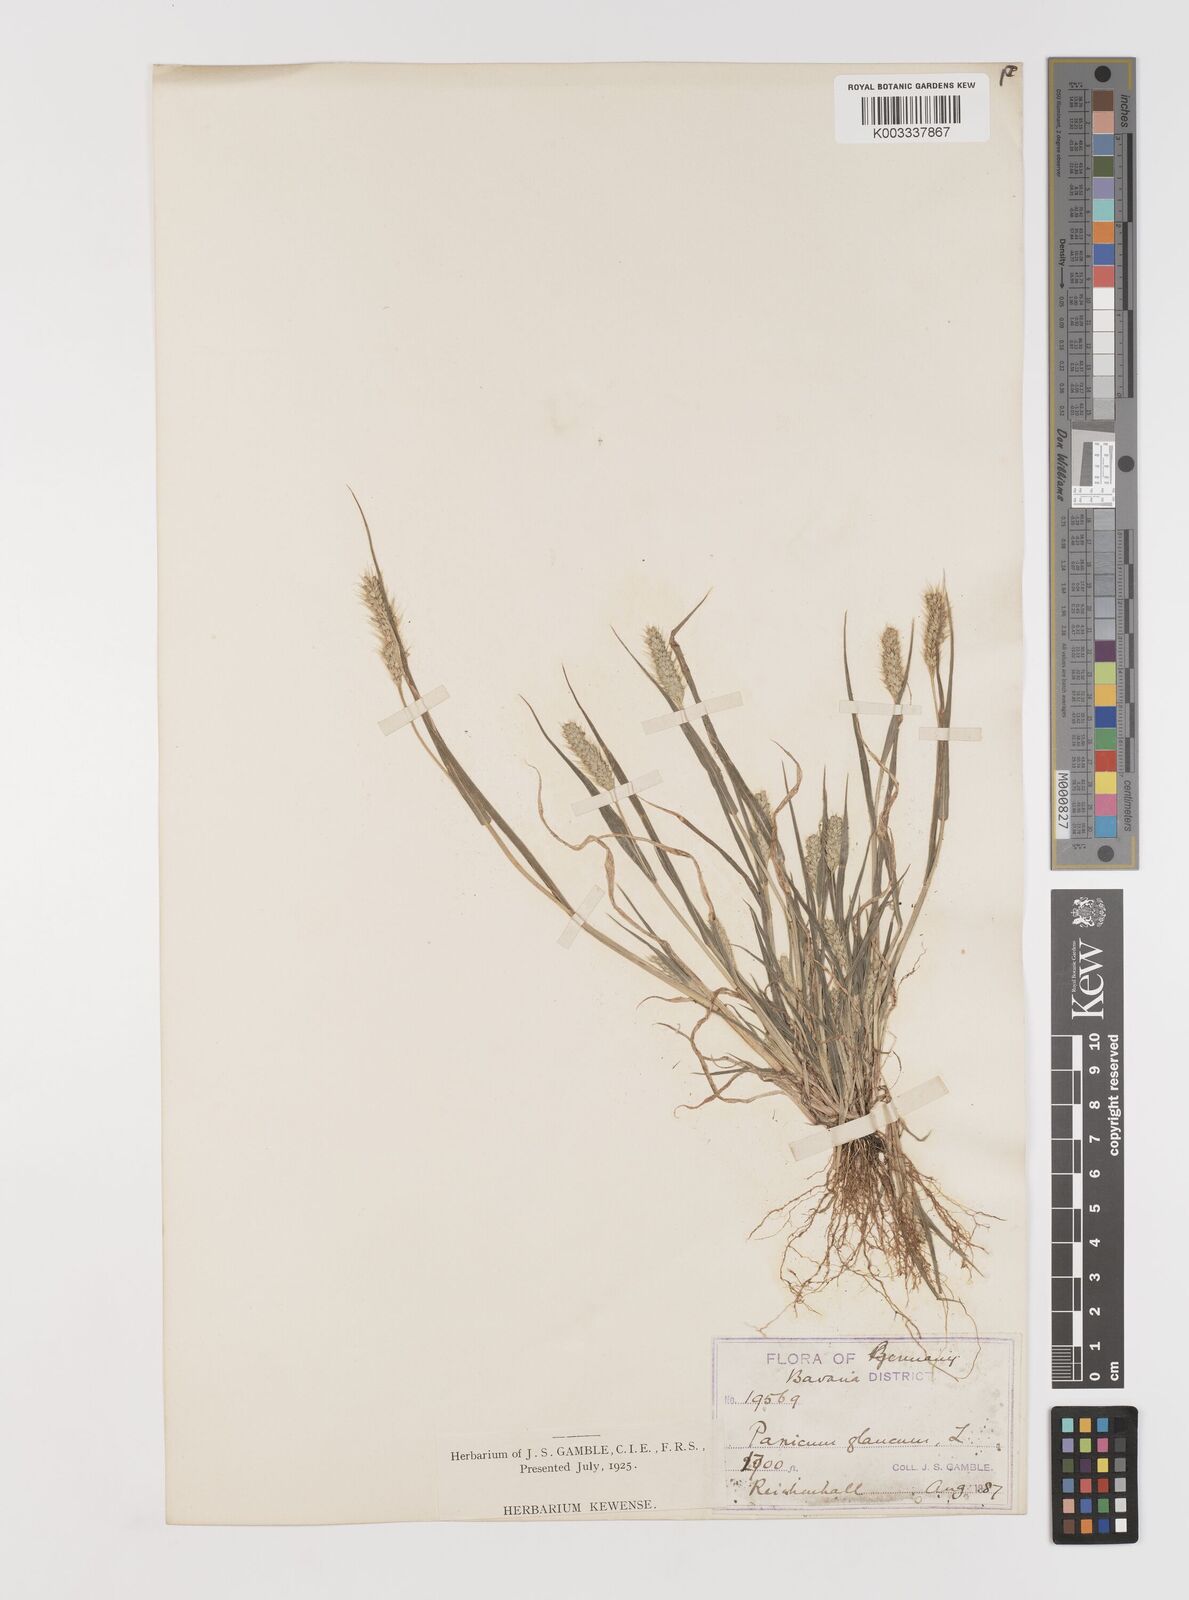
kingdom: Plantae
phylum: Tracheophyta
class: Liliopsida
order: Poales
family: Poaceae
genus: Setaria
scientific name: Setaria viridis
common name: Green bristlegrass
